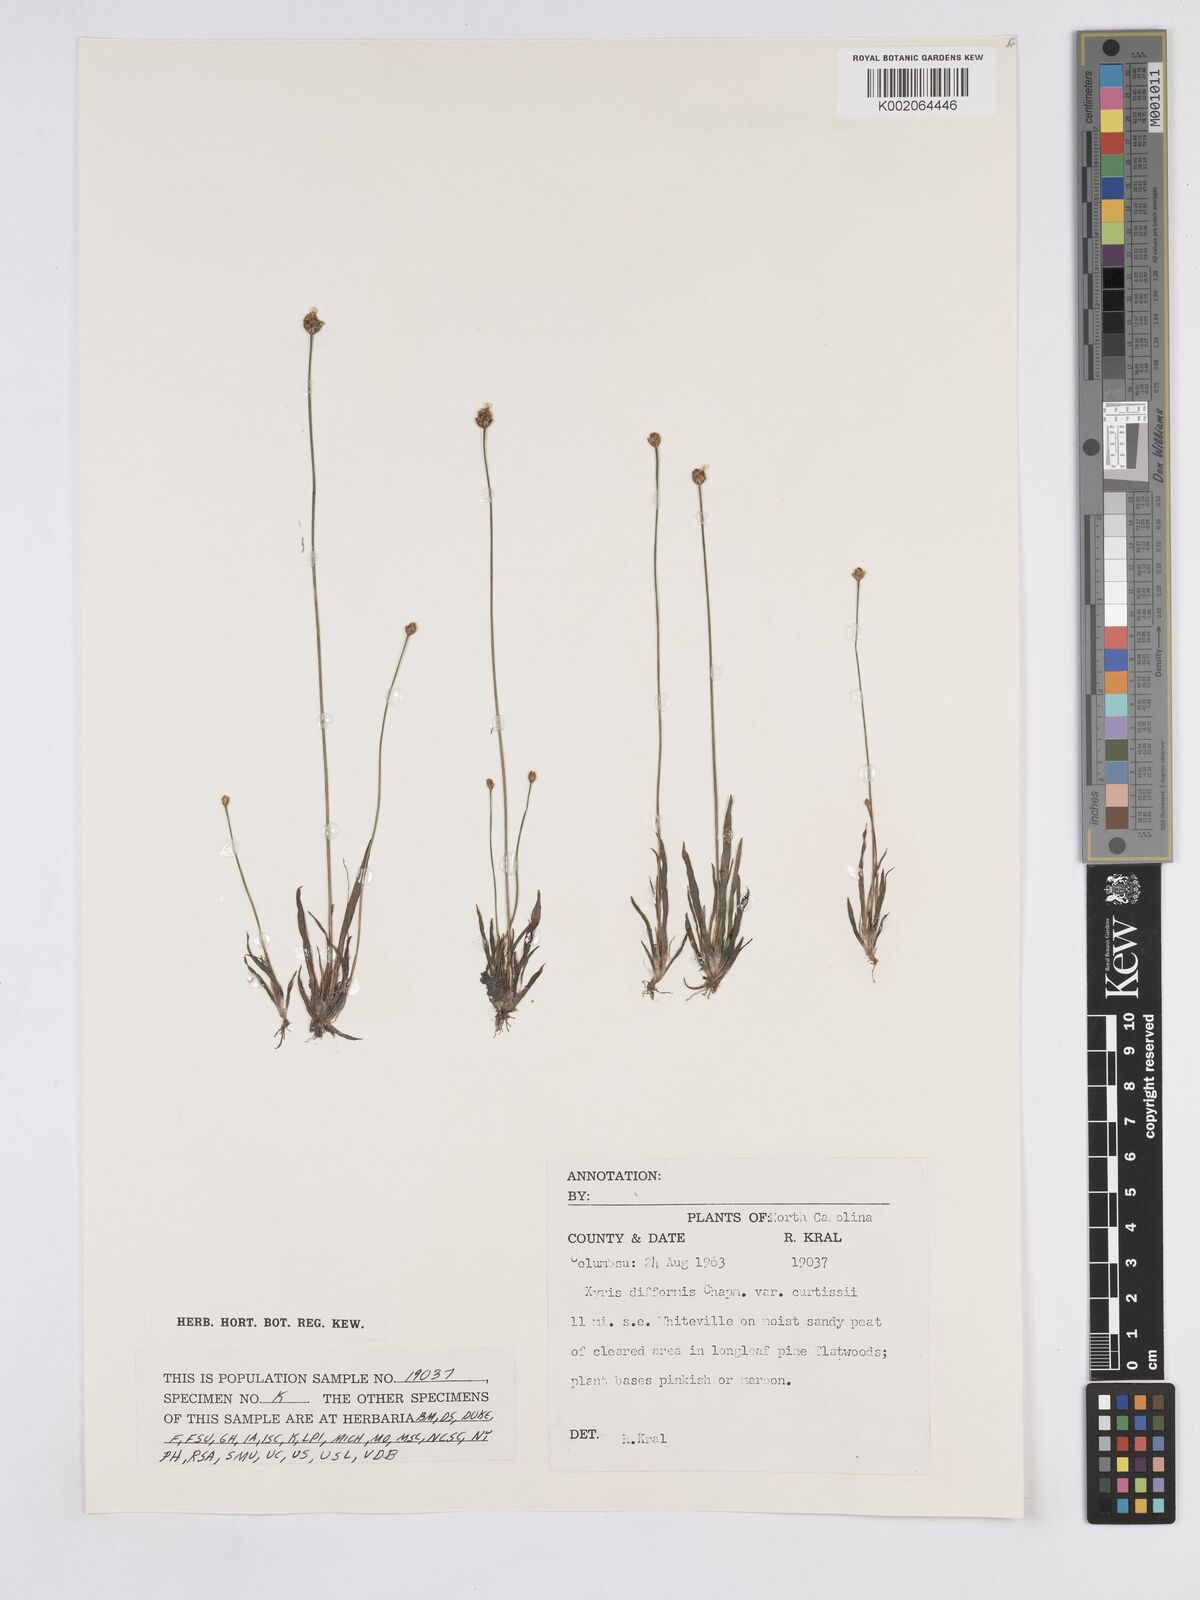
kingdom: Plantae
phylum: Tracheophyta
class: Liliopsida
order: Poales
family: Xyridaceae
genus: Xyris
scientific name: Xyris difformis
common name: Bog yellow-eyed-grass
